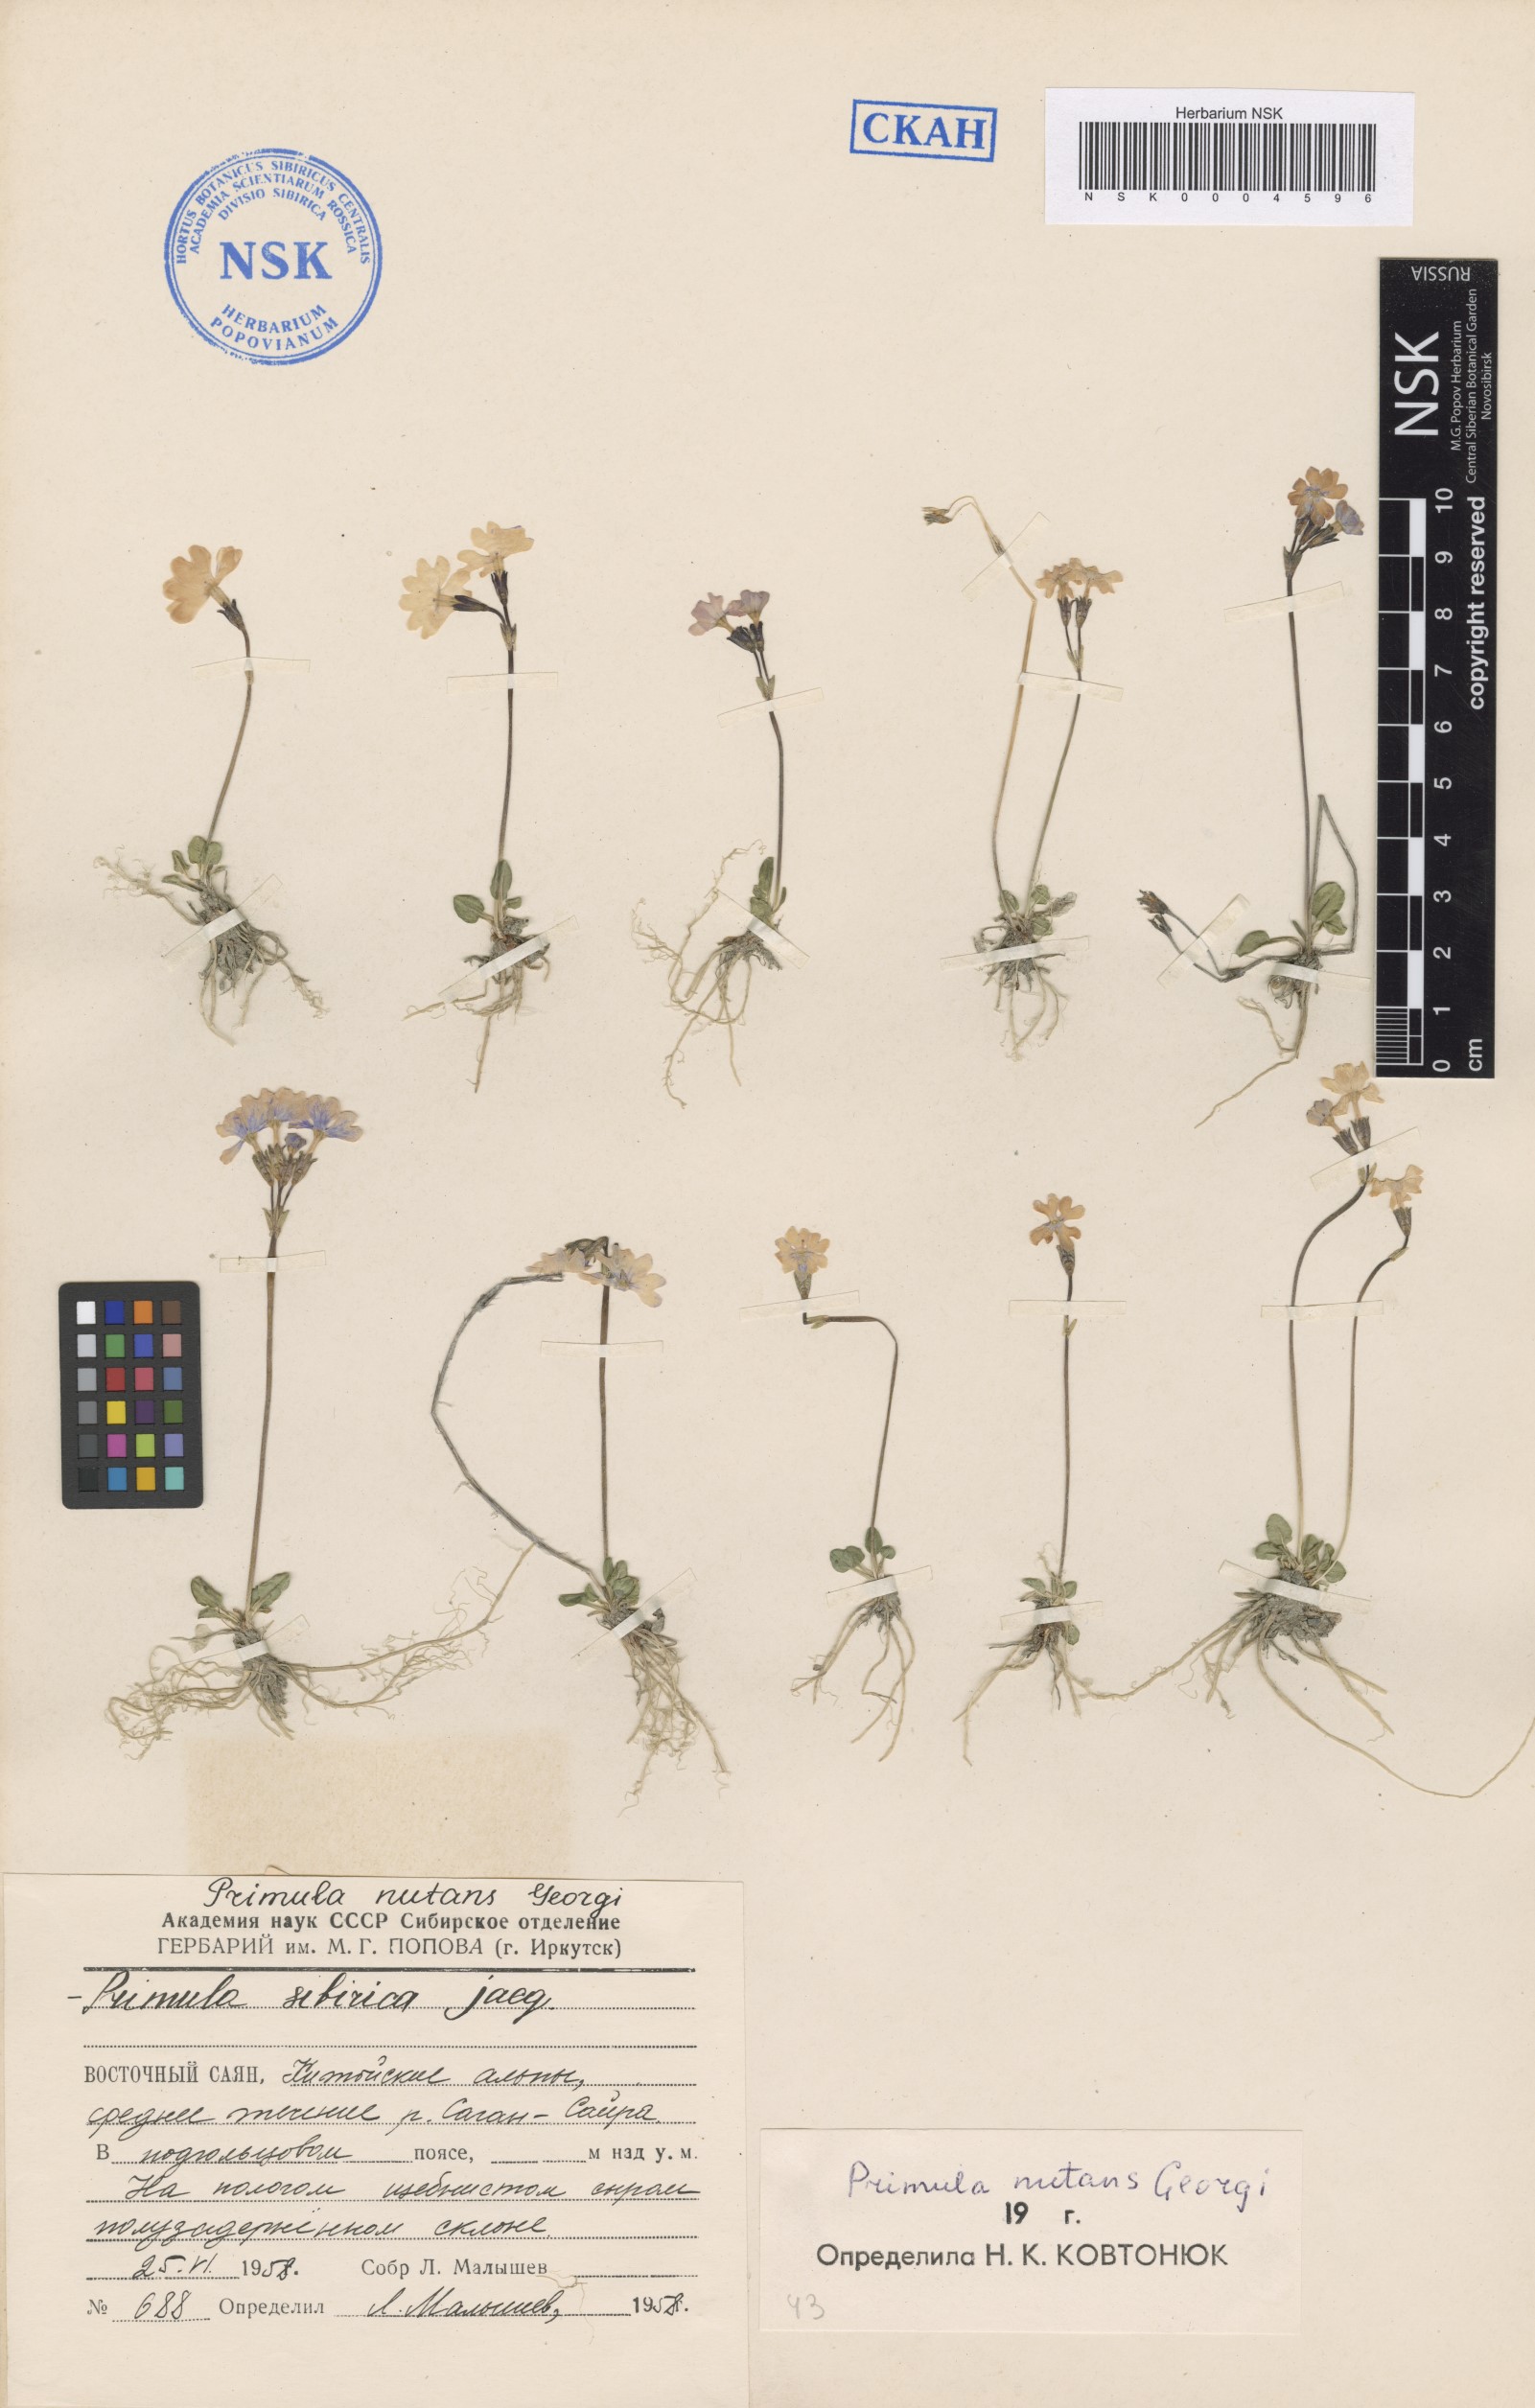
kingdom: Plantae
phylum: Tracheophyta
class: Magnoliopsida
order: Ericales
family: Primulaceae
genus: Primula
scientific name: Primula nutans
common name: Siberian primrose
